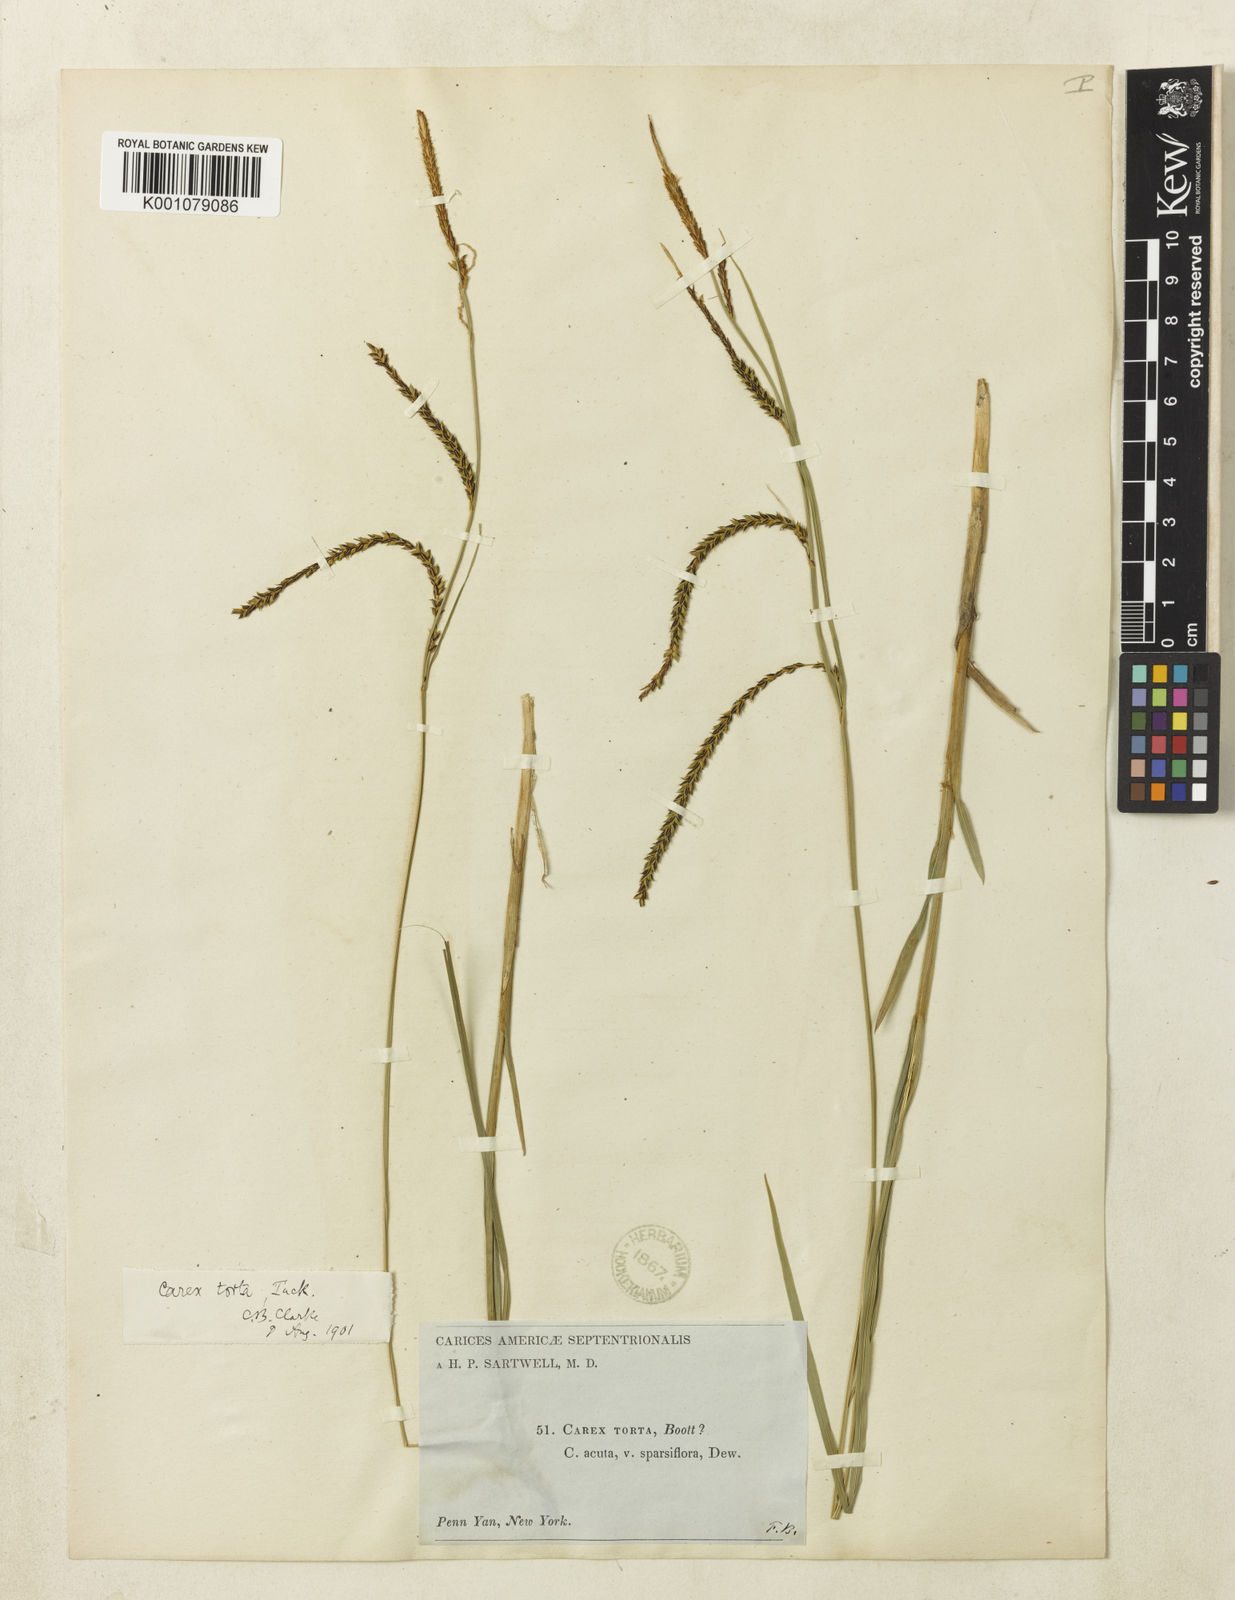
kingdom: Plantae
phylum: Tracheophyta
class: Liliopsida
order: Poales
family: Cyperaceae
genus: Carex
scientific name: Carex torta
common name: Twisted sedge
